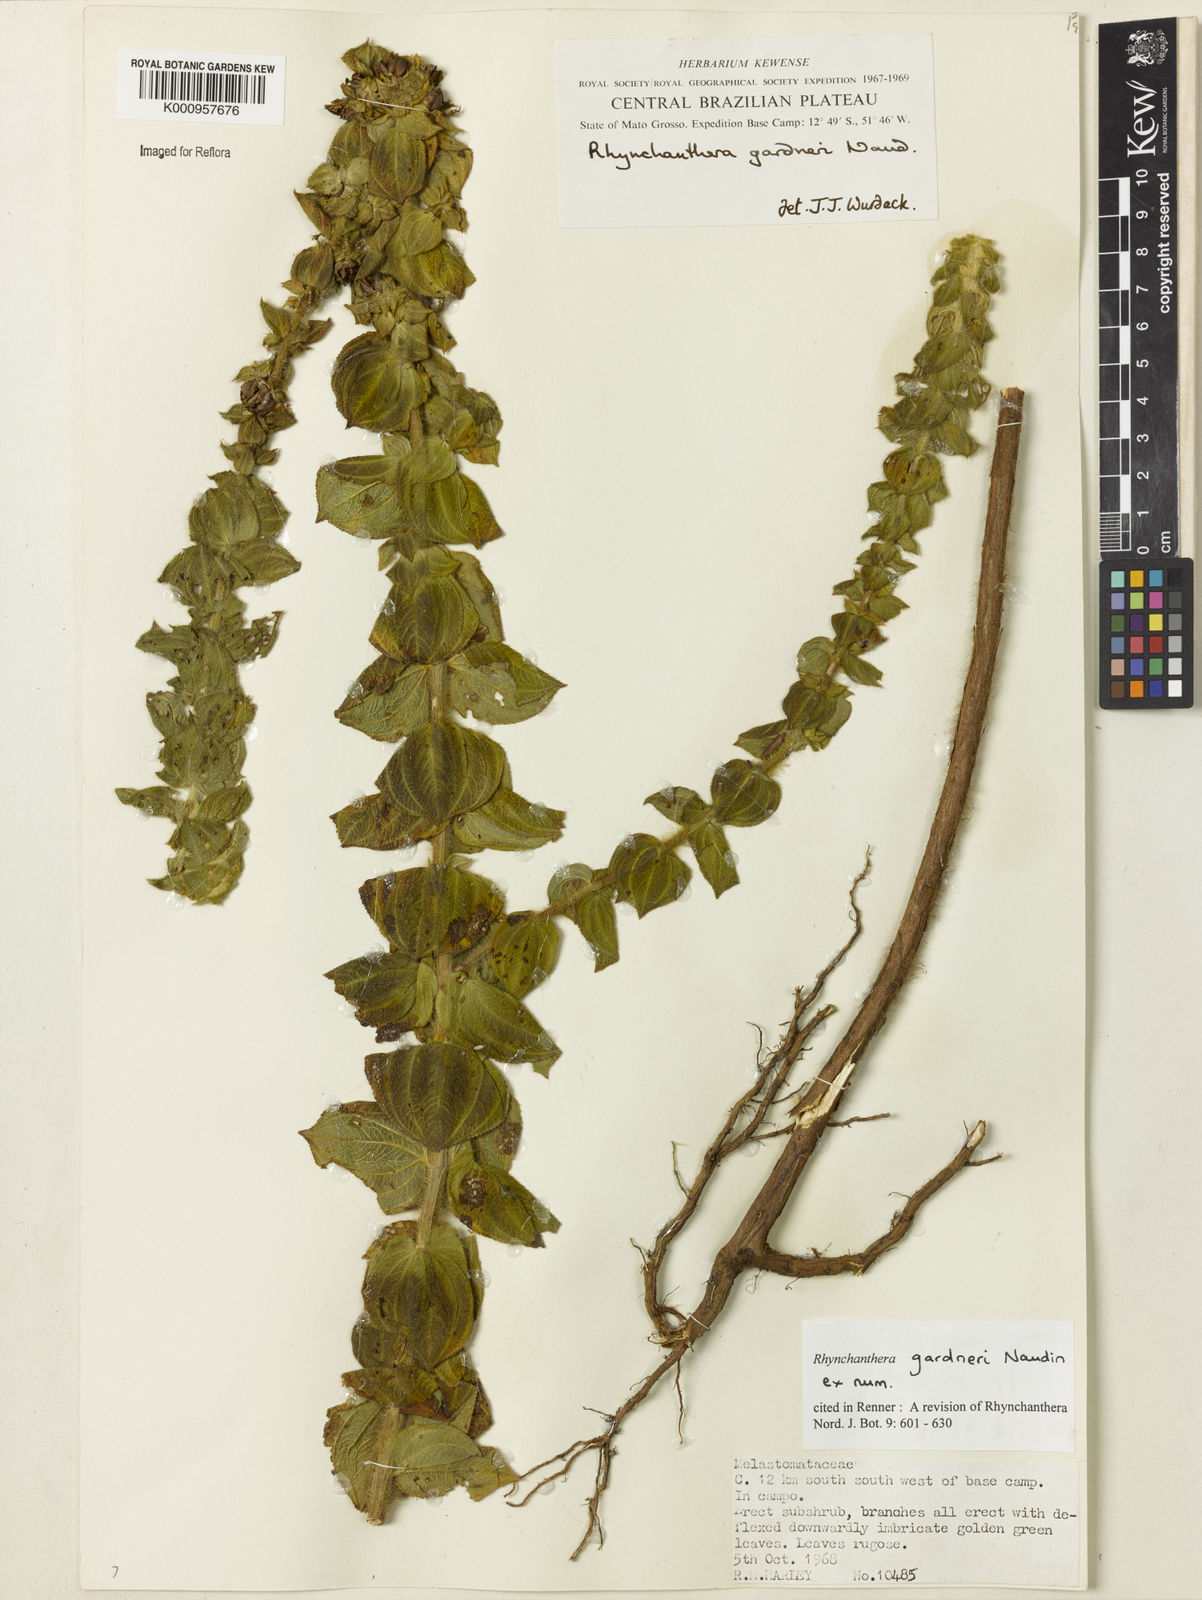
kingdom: Plantae
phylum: Tracheophyta
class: Magnoliopsida
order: Myrtales
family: Melastomataceae
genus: Rhynchanthera
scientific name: Rhynchanthera gardneri
